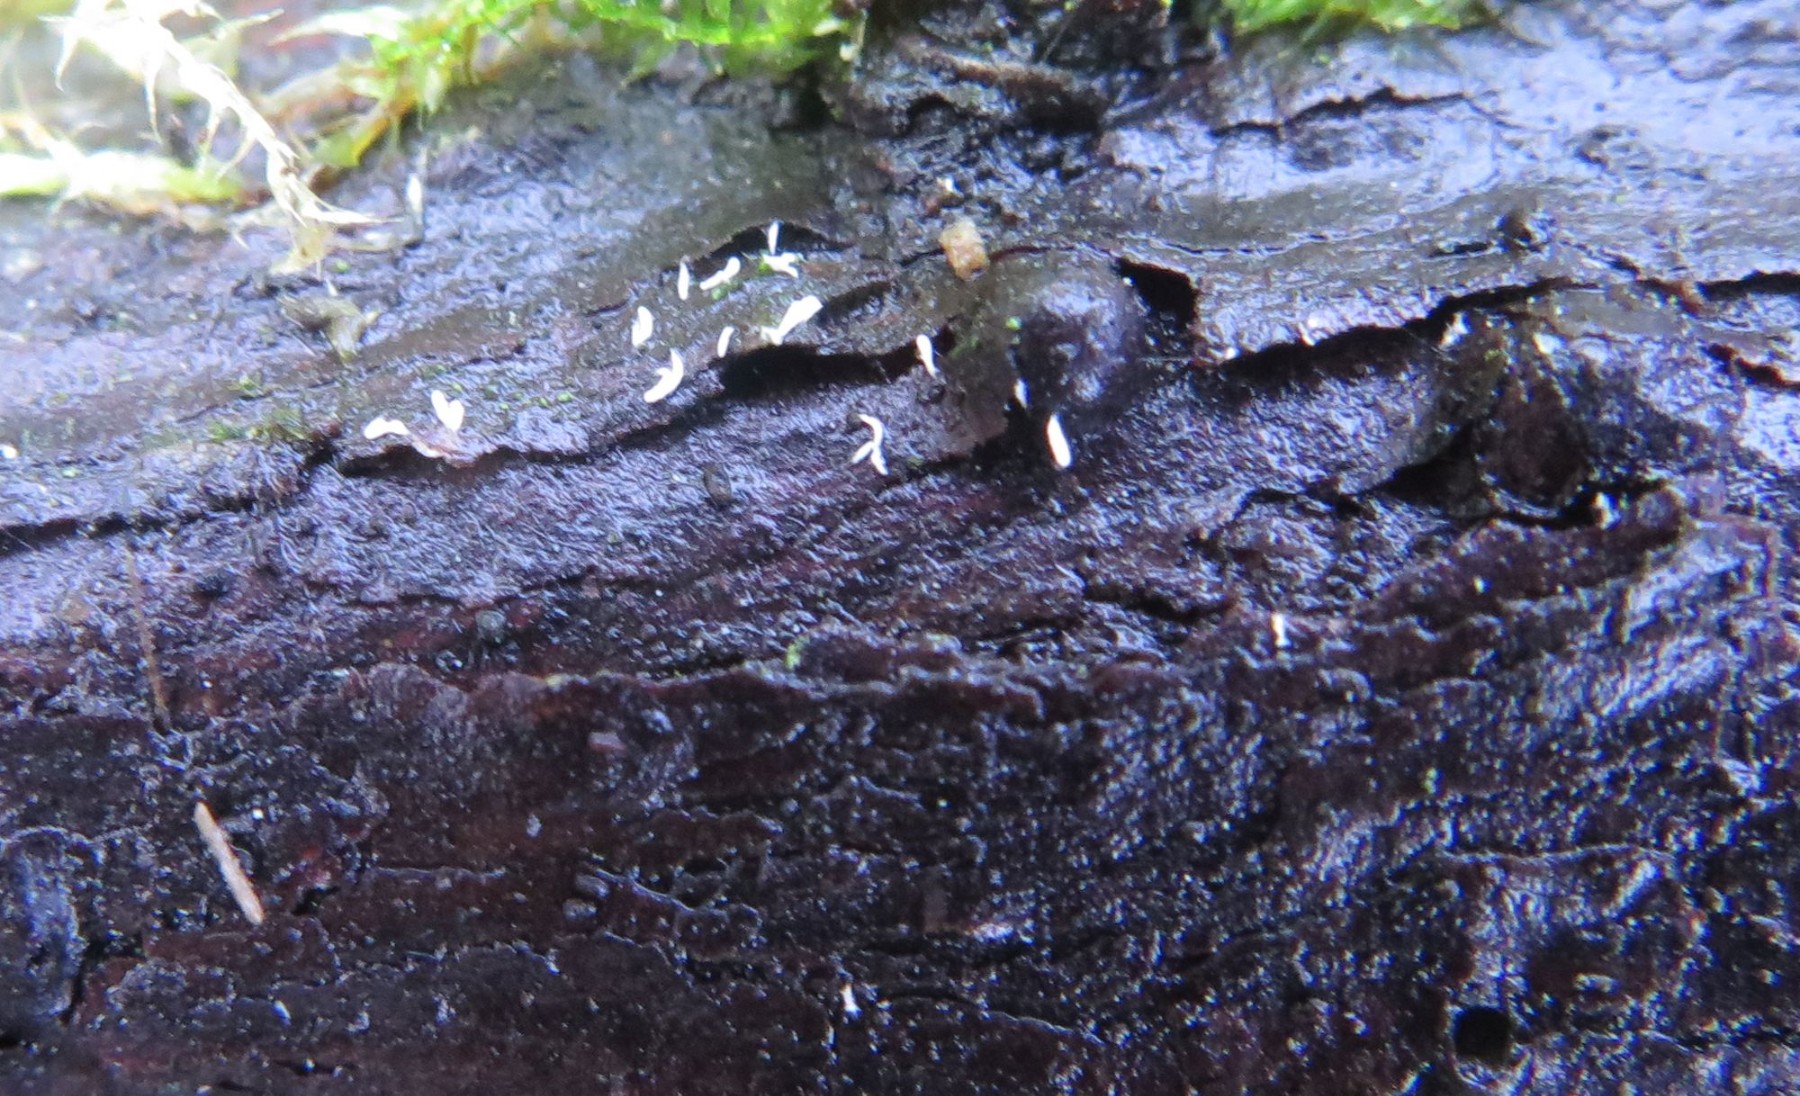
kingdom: Fungi
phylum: Basidiomycota
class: Agaricomycetes
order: Gomphales
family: Gomphaceae
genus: Ceratellopsis
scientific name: Ceratellopsis
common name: sylkølle
